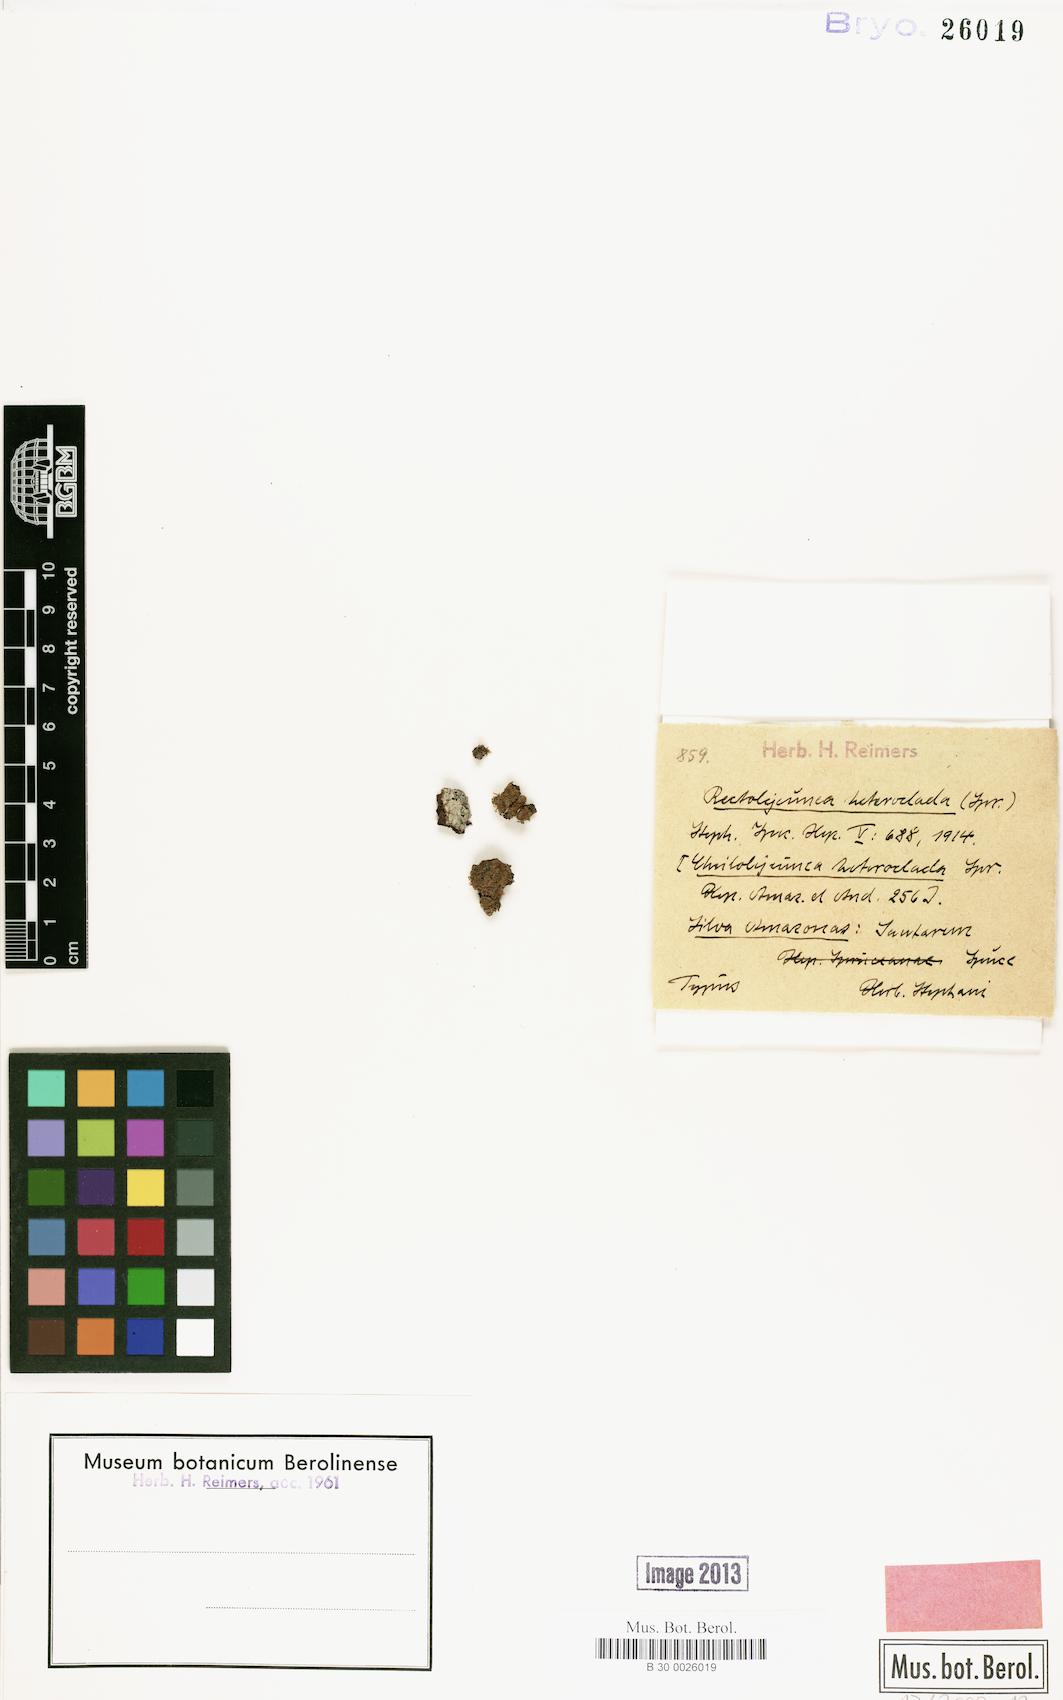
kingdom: Plantae
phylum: Marchantiophyta
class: Jungermanniopsida
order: Porellales
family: Lejeuneaceae
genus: Cheilolejeunea
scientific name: Cheilolejeunea aneogyna
